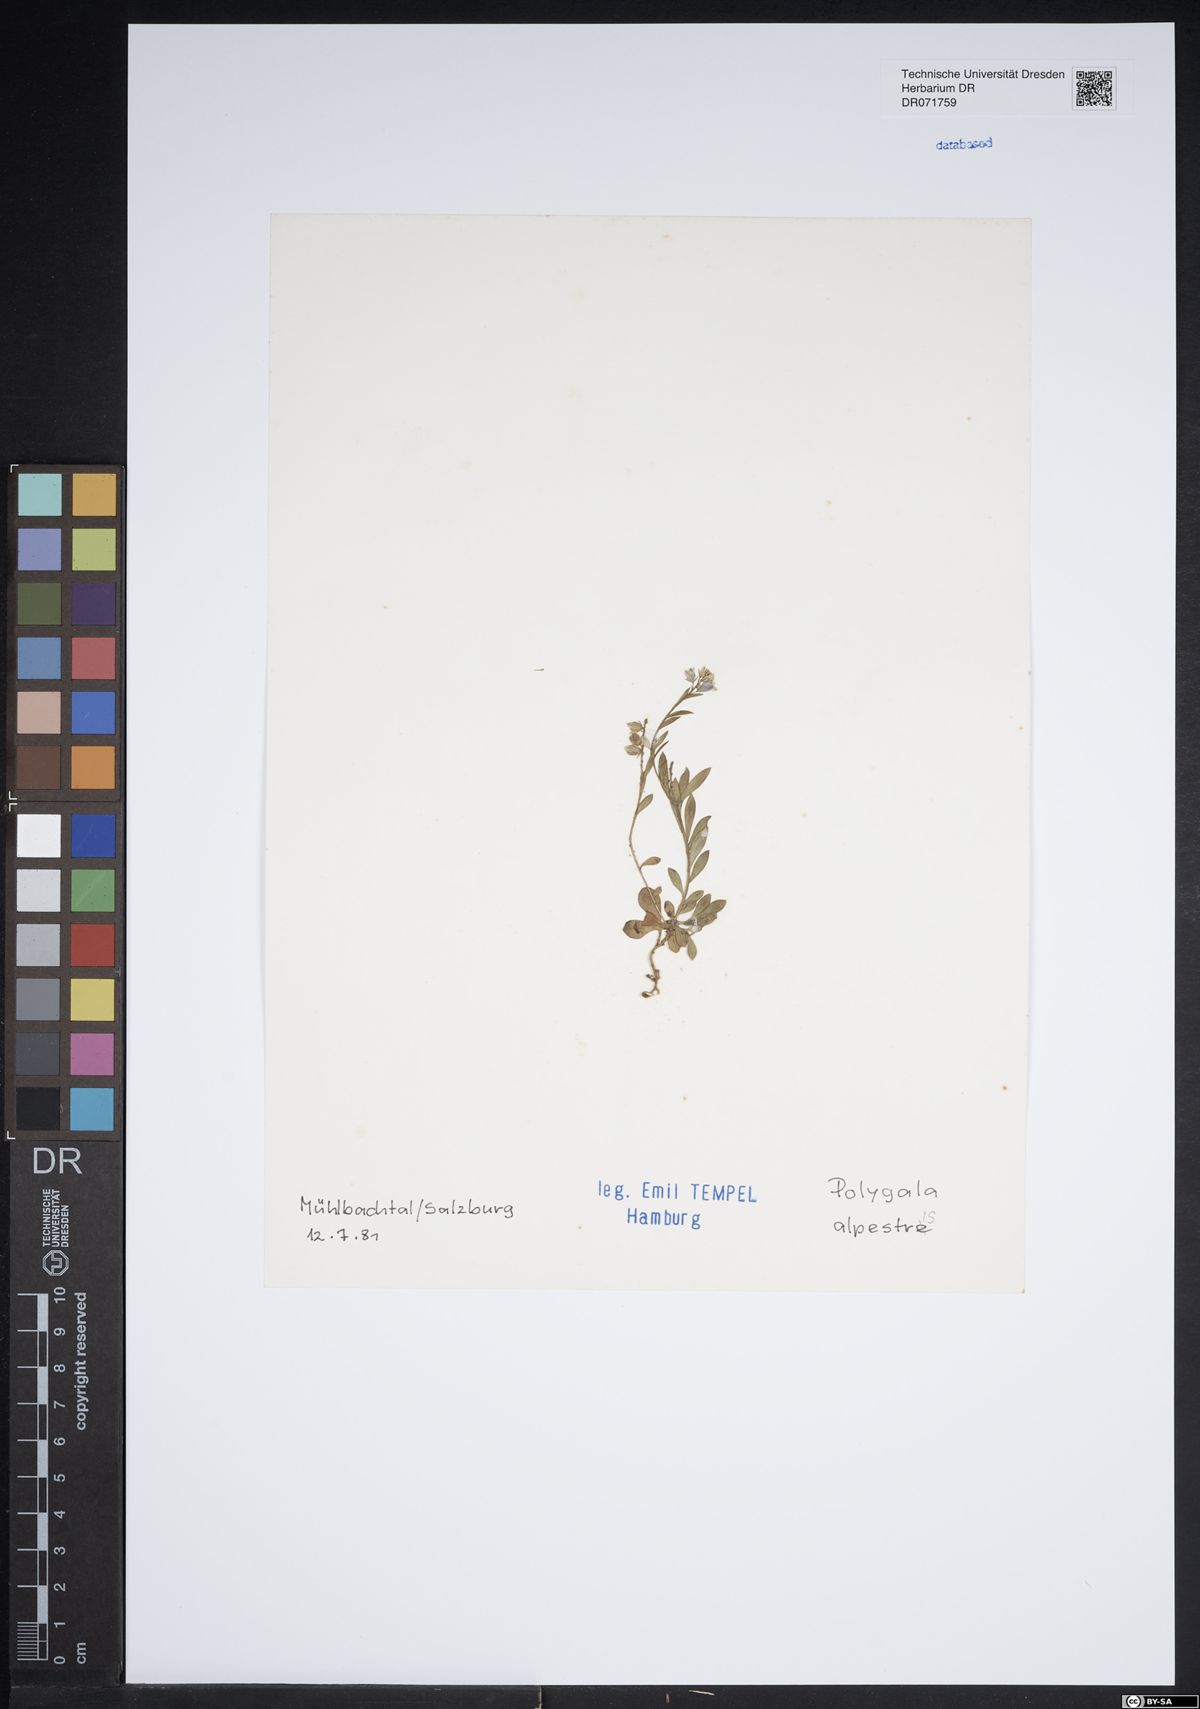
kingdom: Plantae
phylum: Tracheophyta
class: Magnoliopsida
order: Fabales
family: Polygalaceae
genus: Polygala
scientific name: Polygala alpestris
